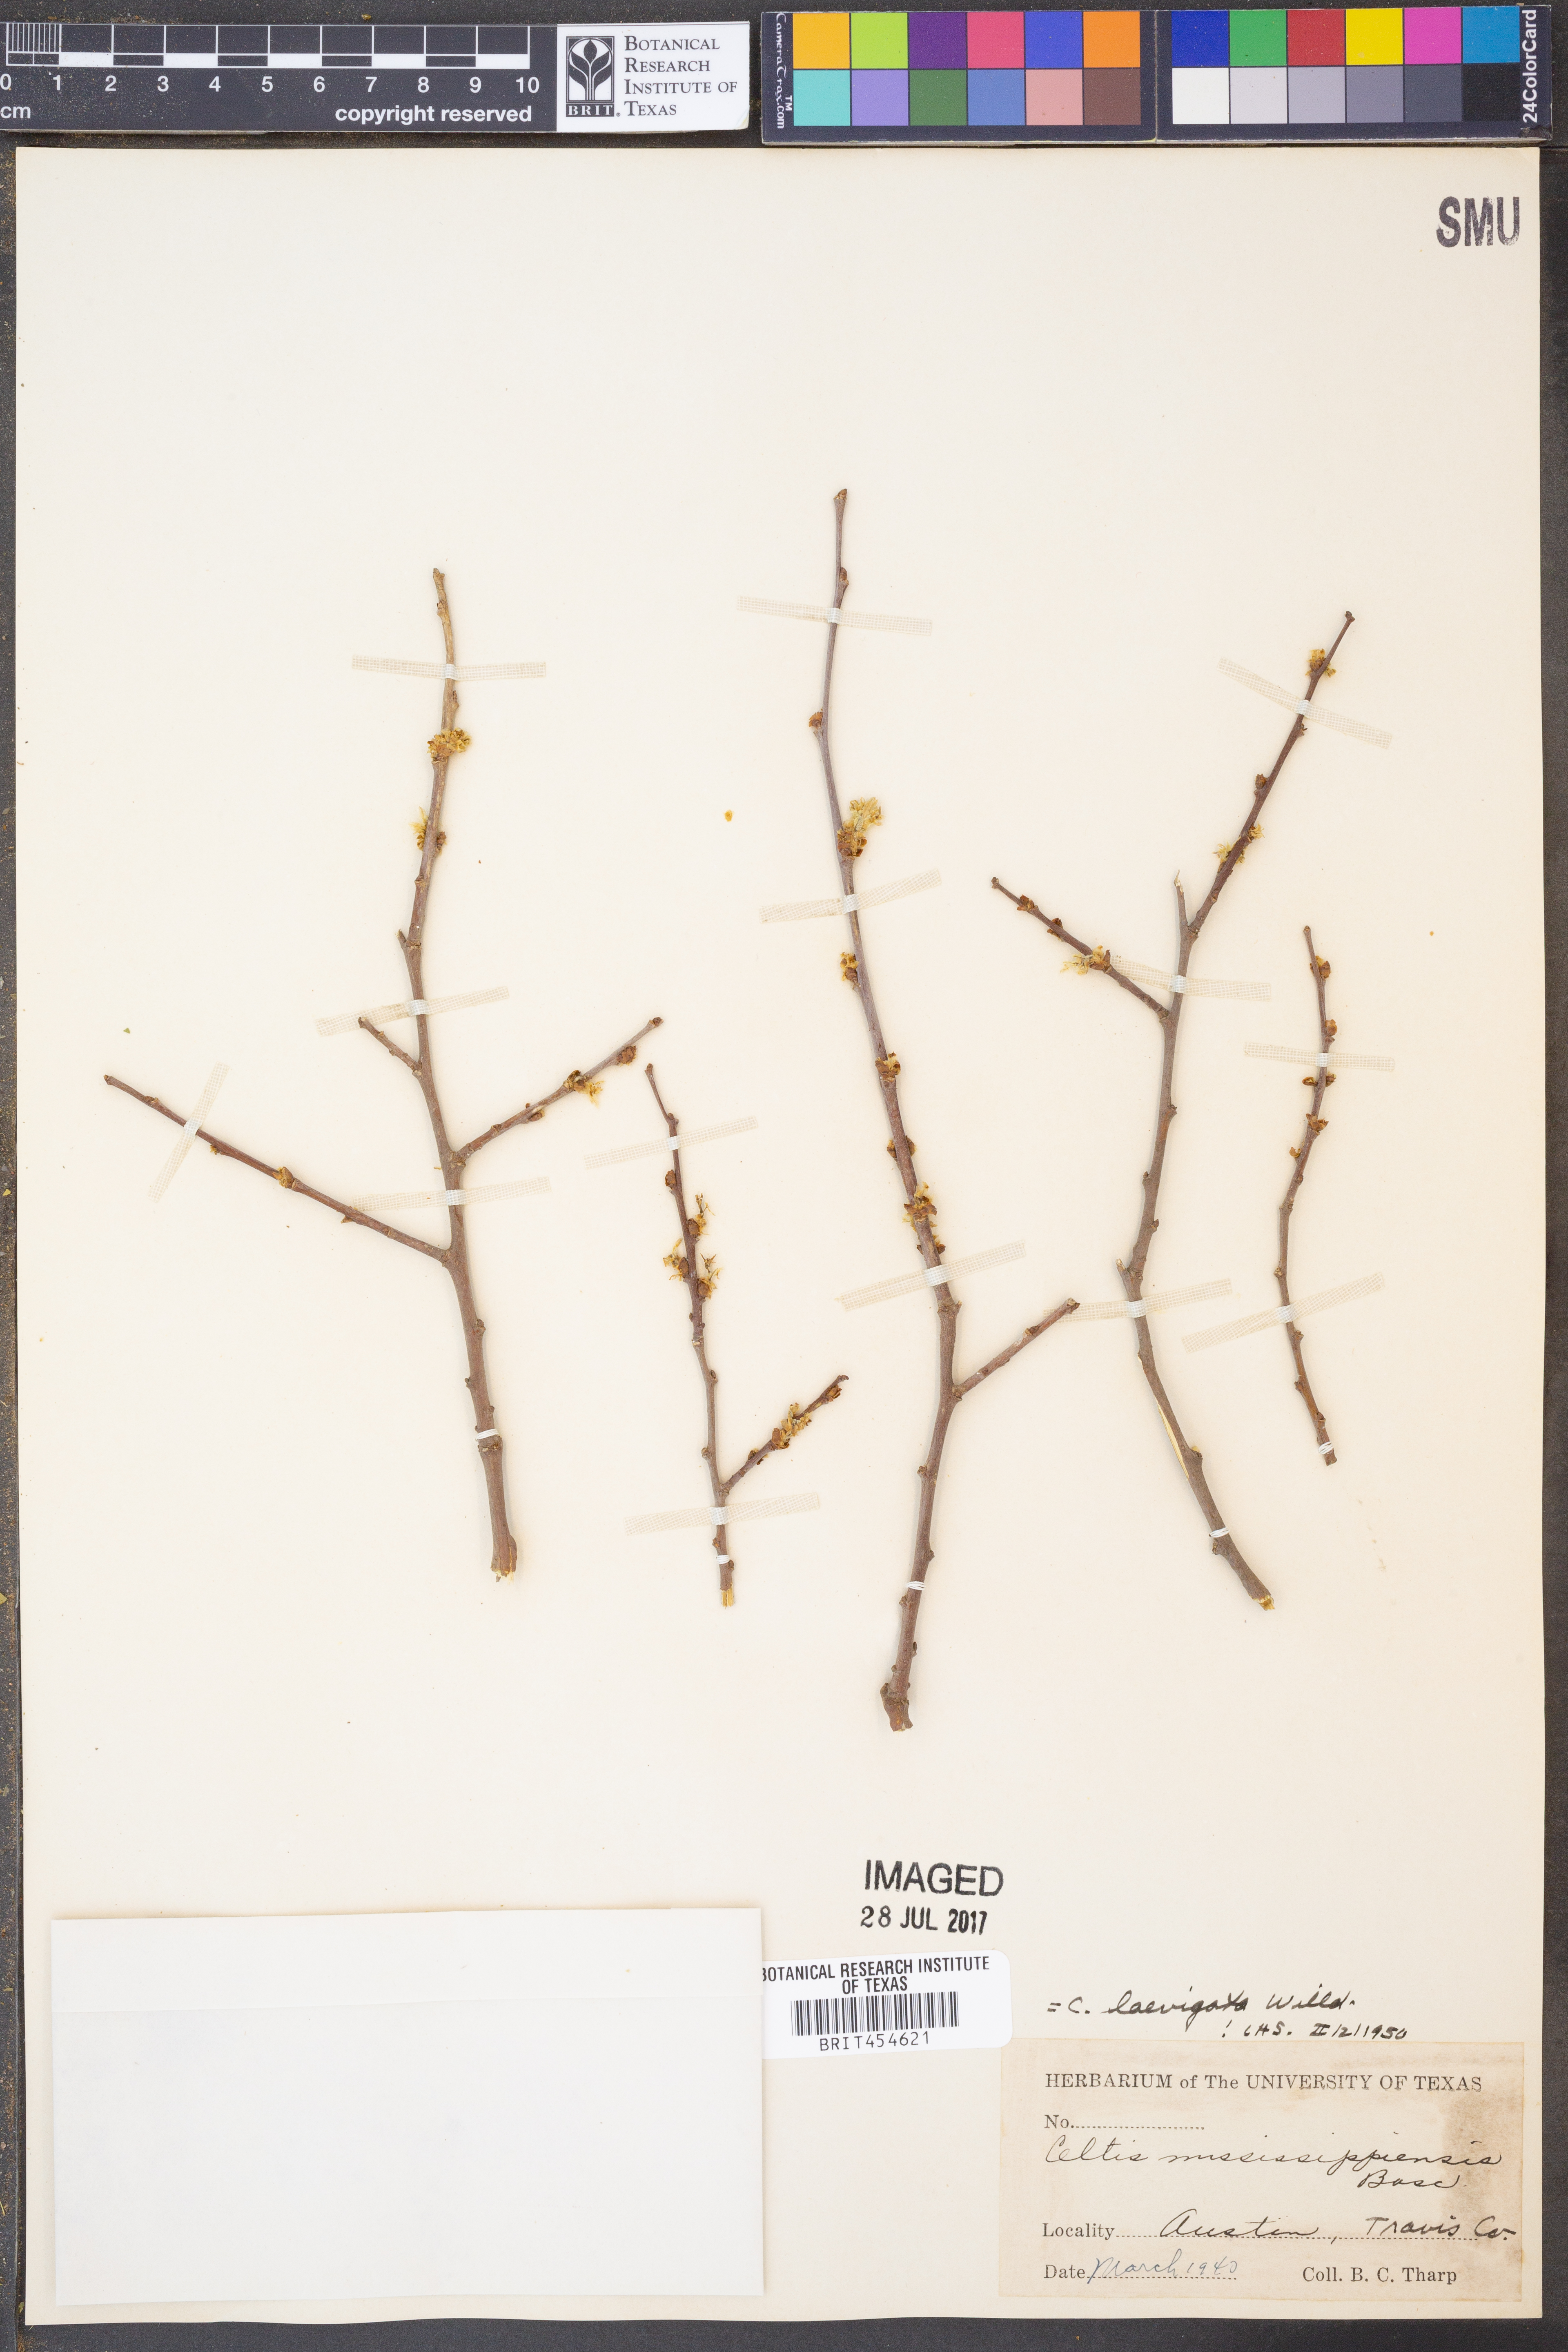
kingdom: Plantae
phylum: Tracheophyta
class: Magnoliopsida
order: Rosales
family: Cannabaceae
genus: Celtis
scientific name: Celtis laevigata
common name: Sugarberry
